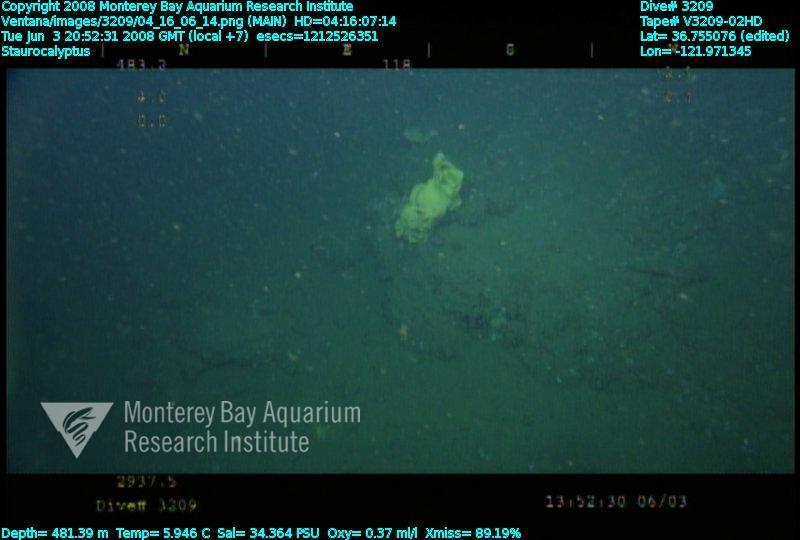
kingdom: Animalia
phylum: Porifera
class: Hexactinellida
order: Lyssacinosida
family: Rossellidae
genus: Staurocalyptus
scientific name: Staurocalyptus
